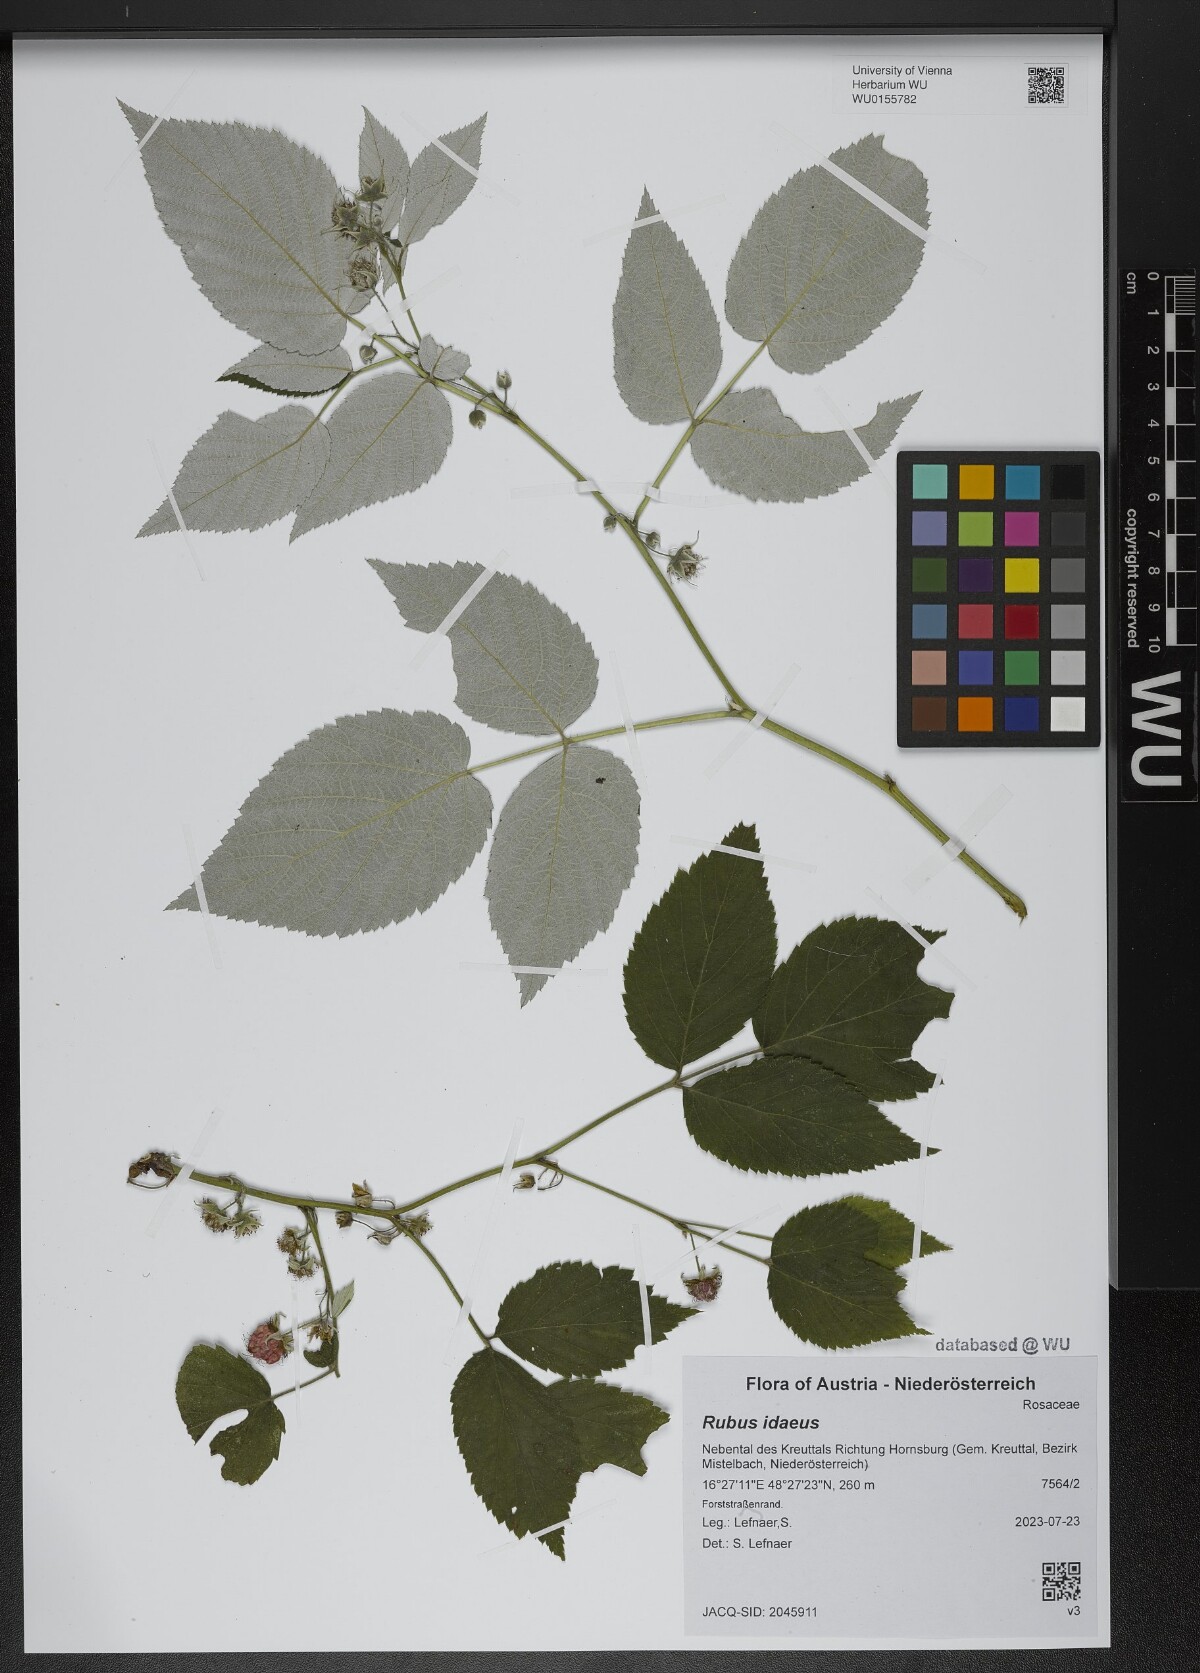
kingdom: Plantae
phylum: Tracheophyta
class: Magnoliopsida
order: Rosales
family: Rosaceae
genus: Rubus
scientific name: Rubus idaeus
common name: Raspberry
